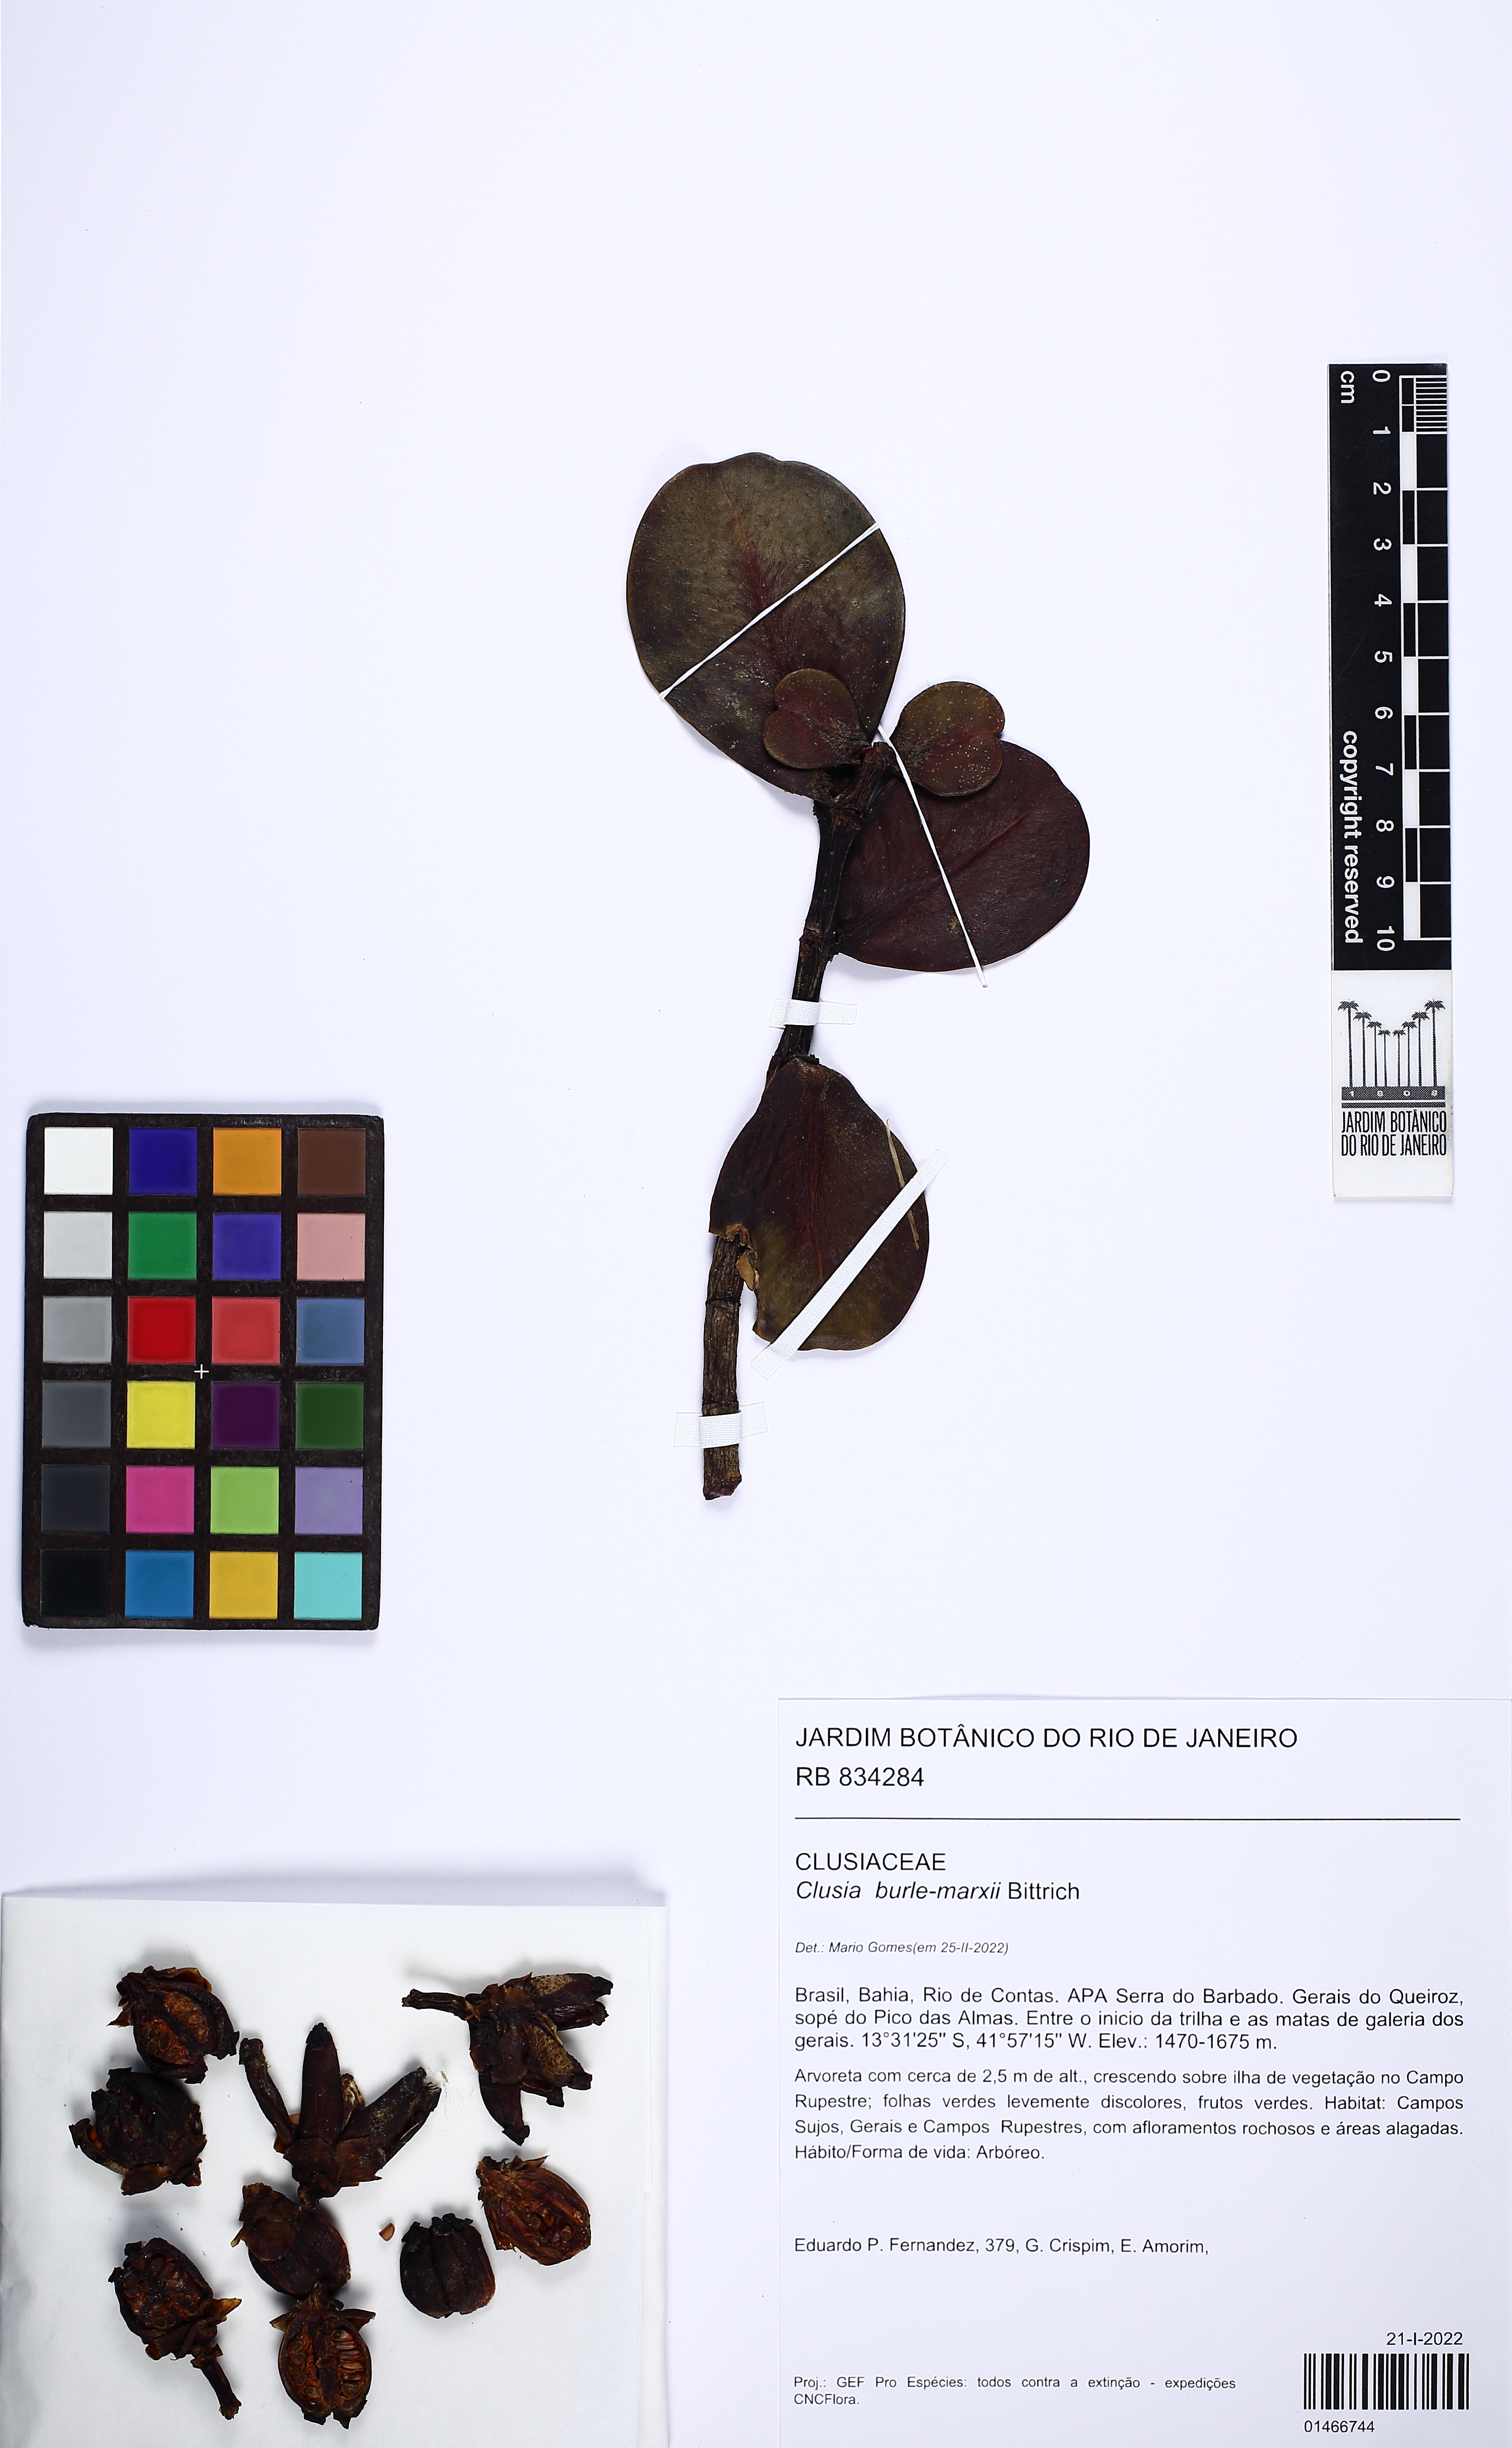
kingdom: Plantae
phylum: Tracheophyta
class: Magnoliopsida
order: Malpighiales
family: Clusiaceae
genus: Clusia
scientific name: Clusia burle-marxii
